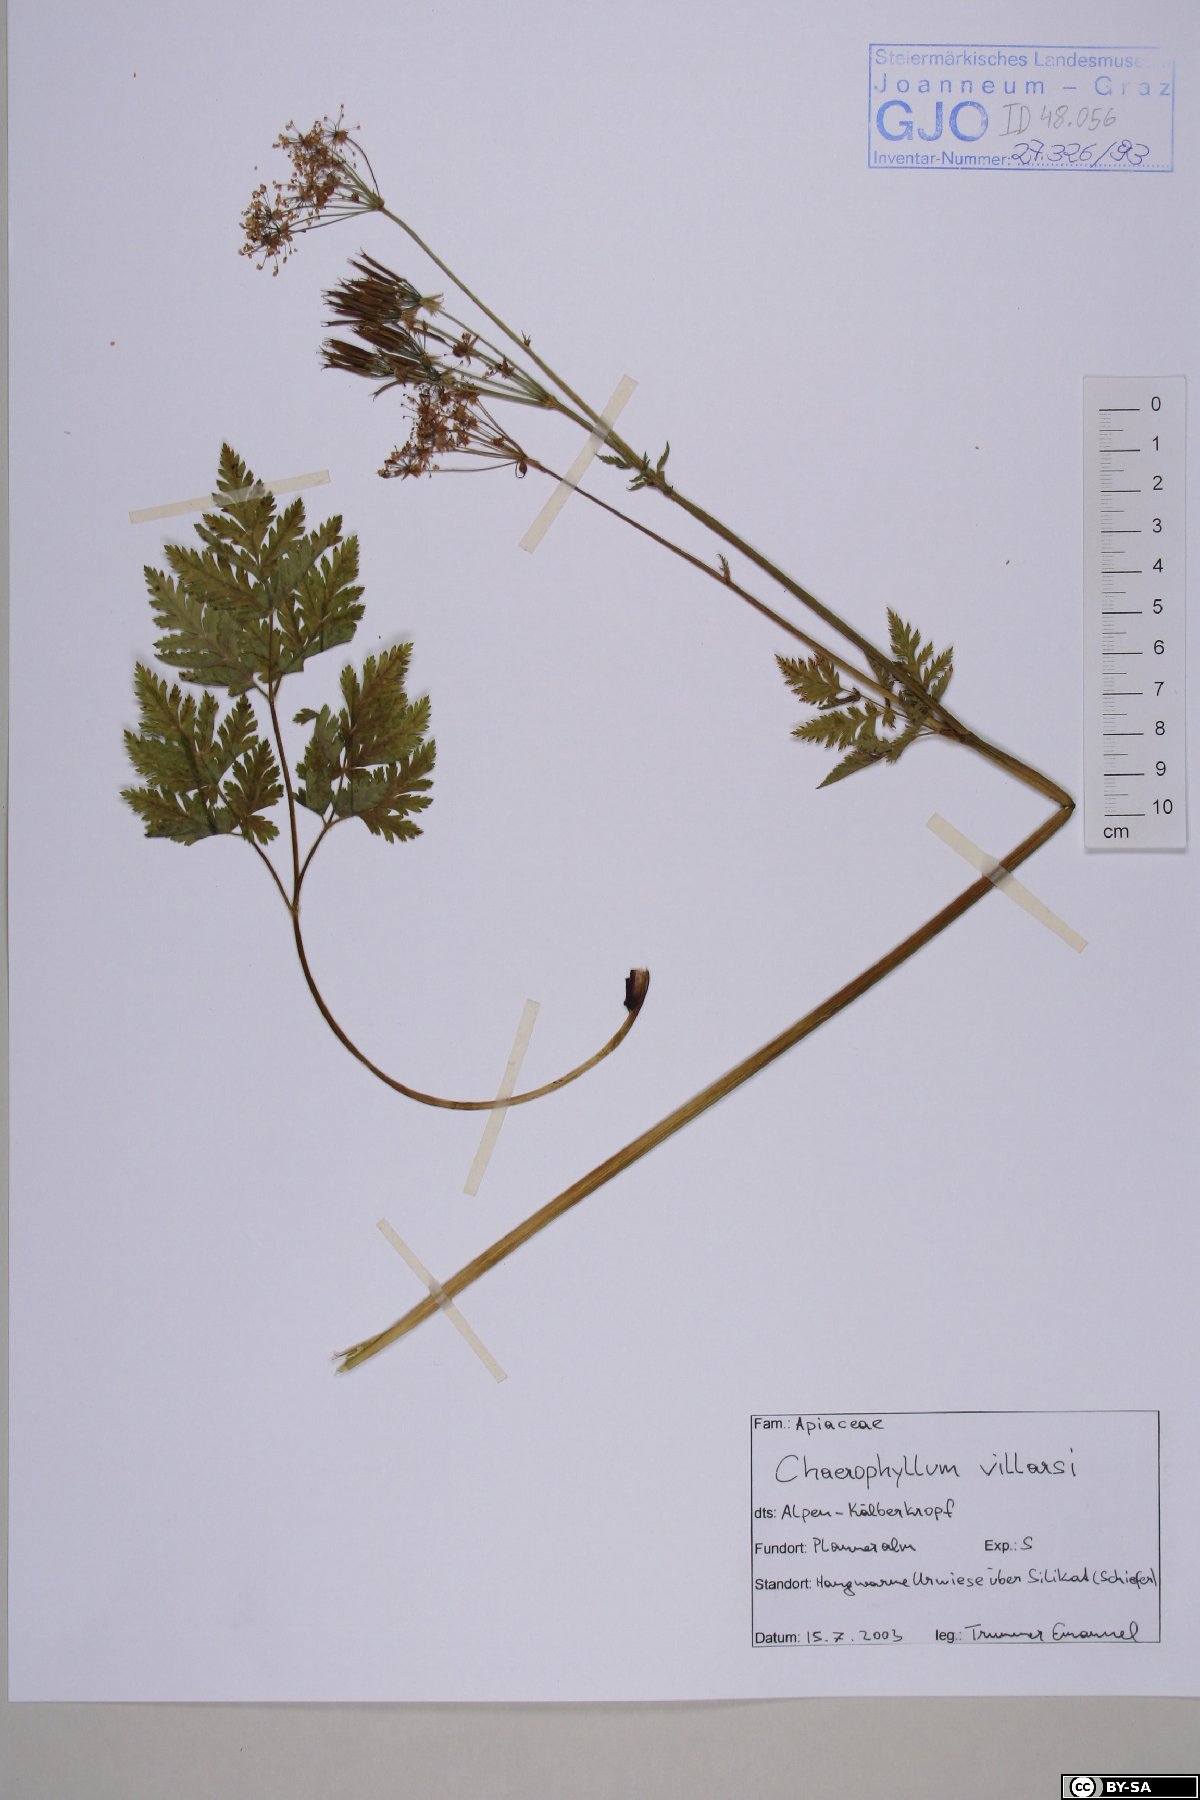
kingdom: Plantae
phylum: Tracheophyta
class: Magnoliopsida
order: Apiales
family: Apiaceae
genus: Chaerophyllum
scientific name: Chaerophyllum villarsii
